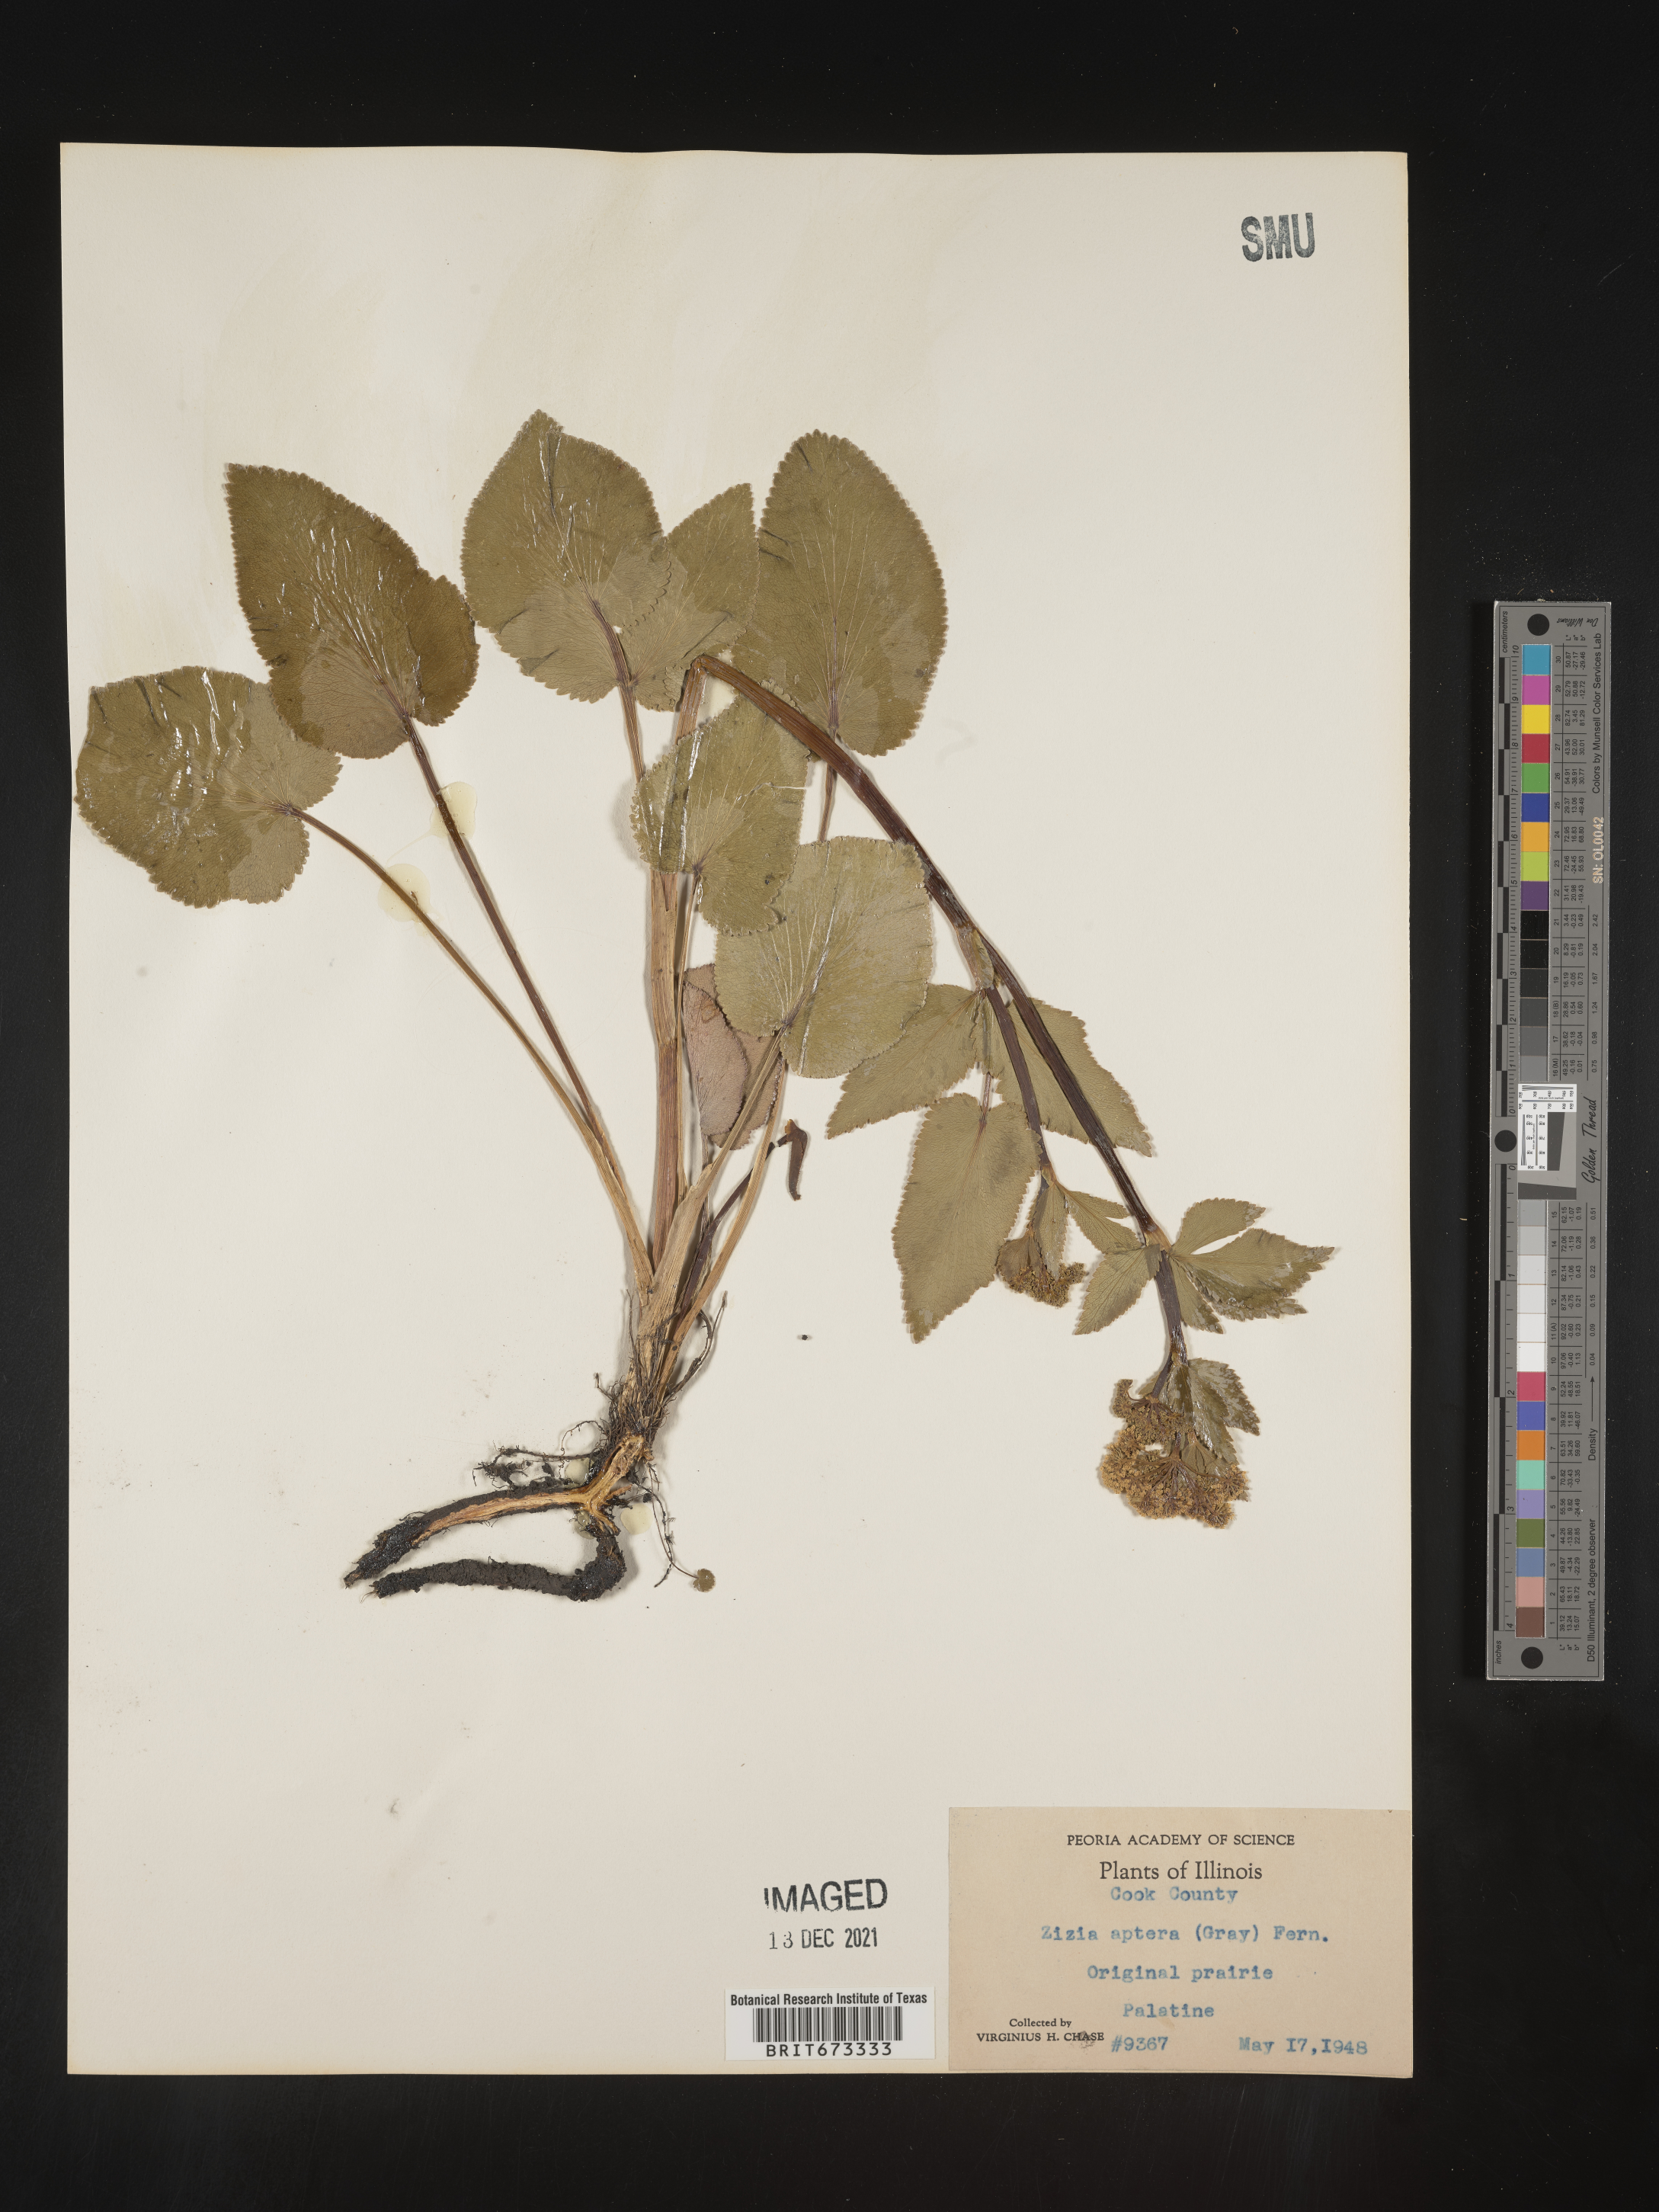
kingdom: Plantae
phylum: Tracheophyta
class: Magnoliopsida
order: Apiales
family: Apiaceae
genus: Zizia
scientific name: Zizia aptera
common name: Heart-leaved alexanders
